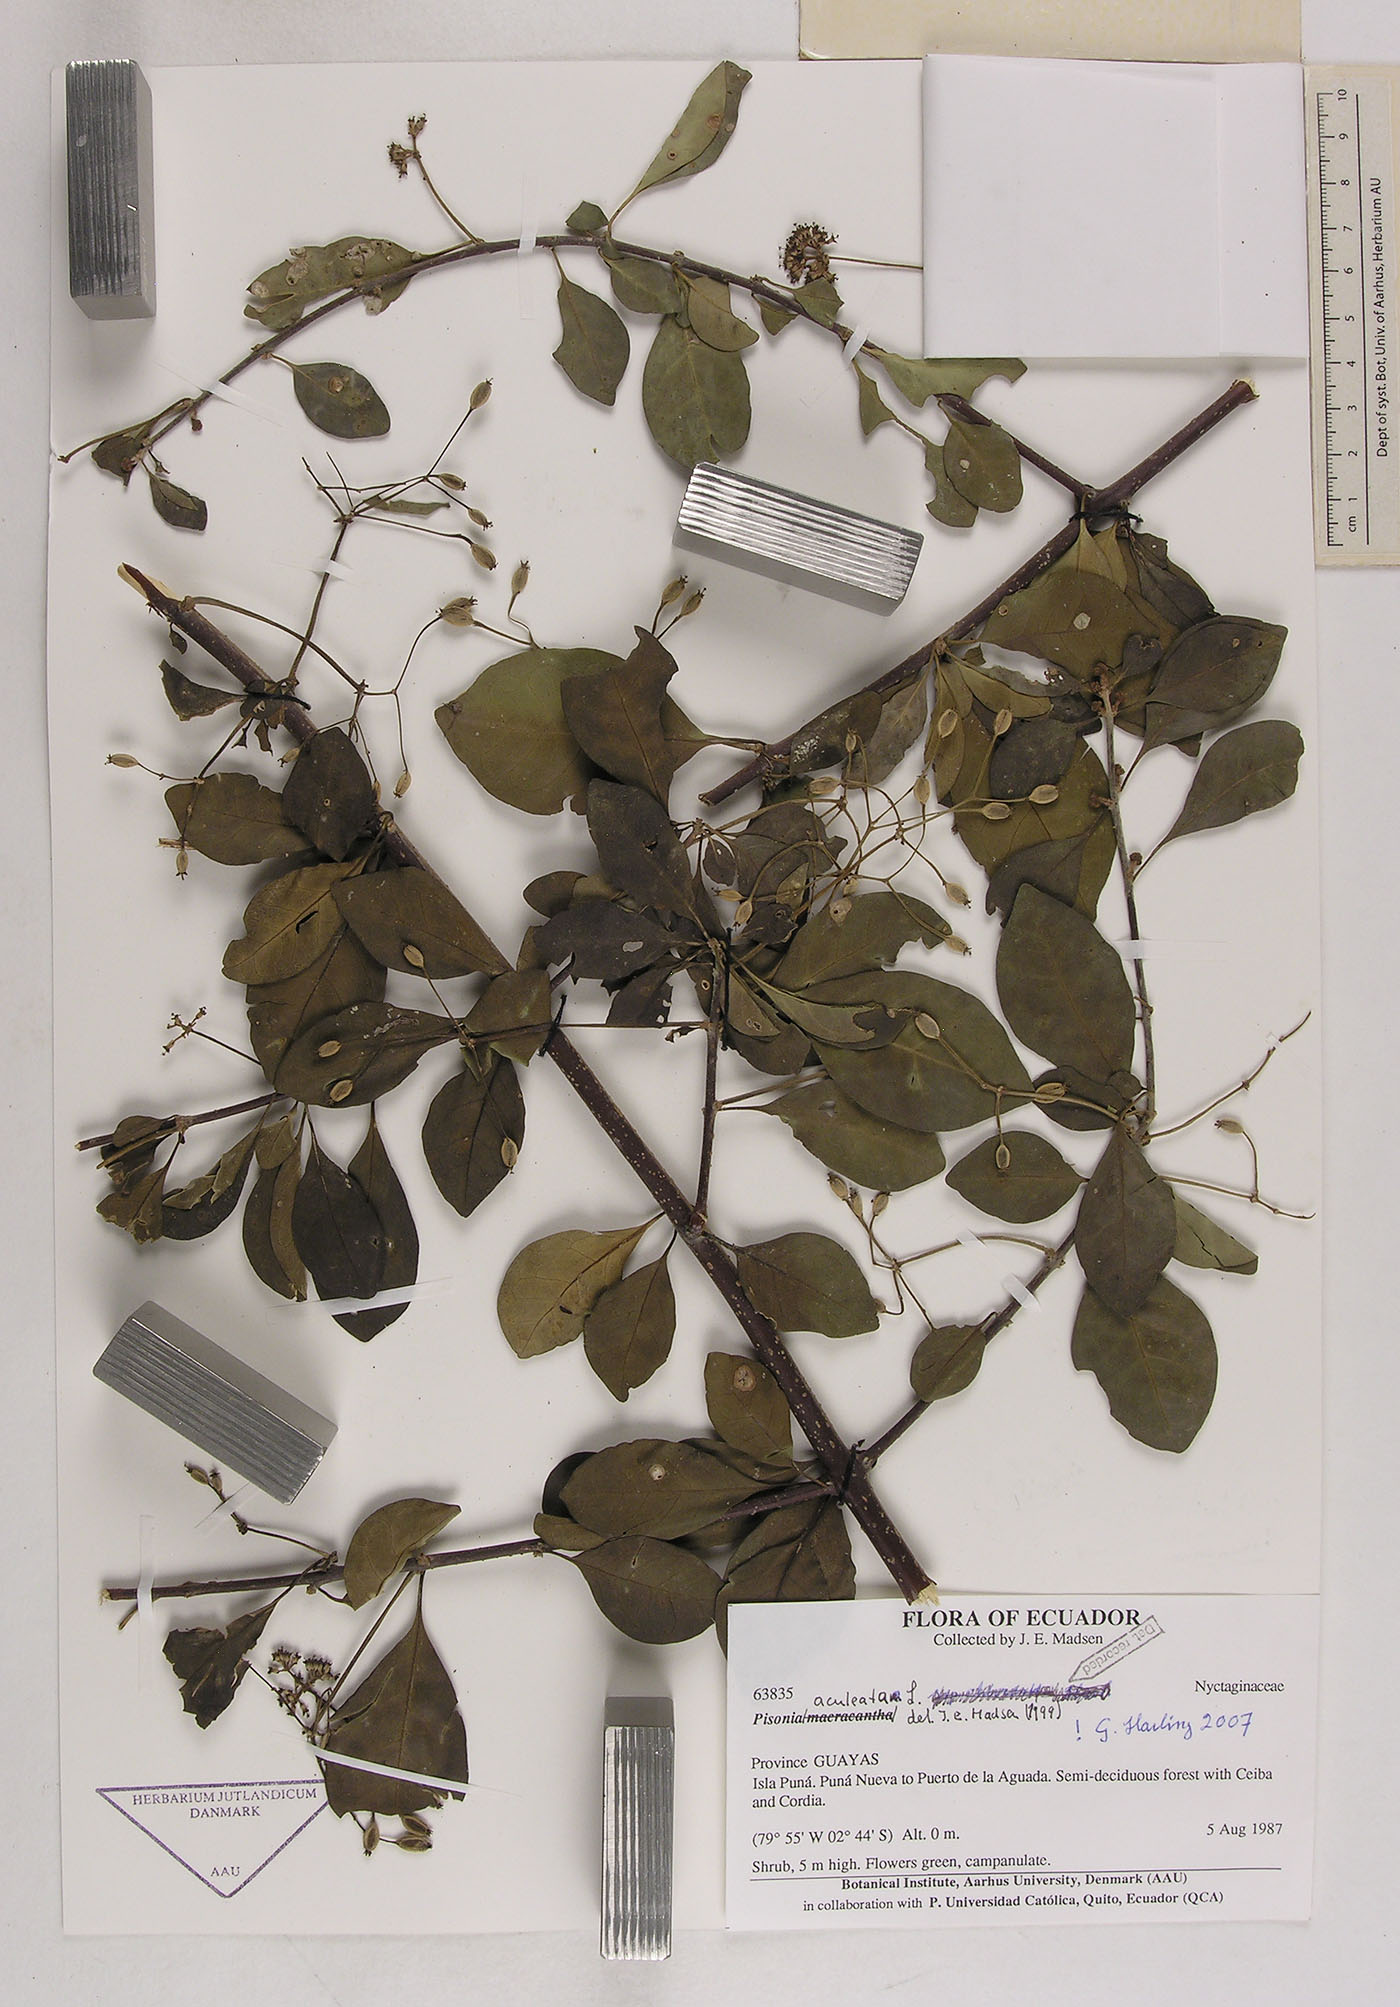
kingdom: Plantae
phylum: Tracheophyta
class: Magnoliopsida
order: Caryophyllales
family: Nyctaginaceae
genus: Pisonia
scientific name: Pisonia aculeata
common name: Cockspur vine
